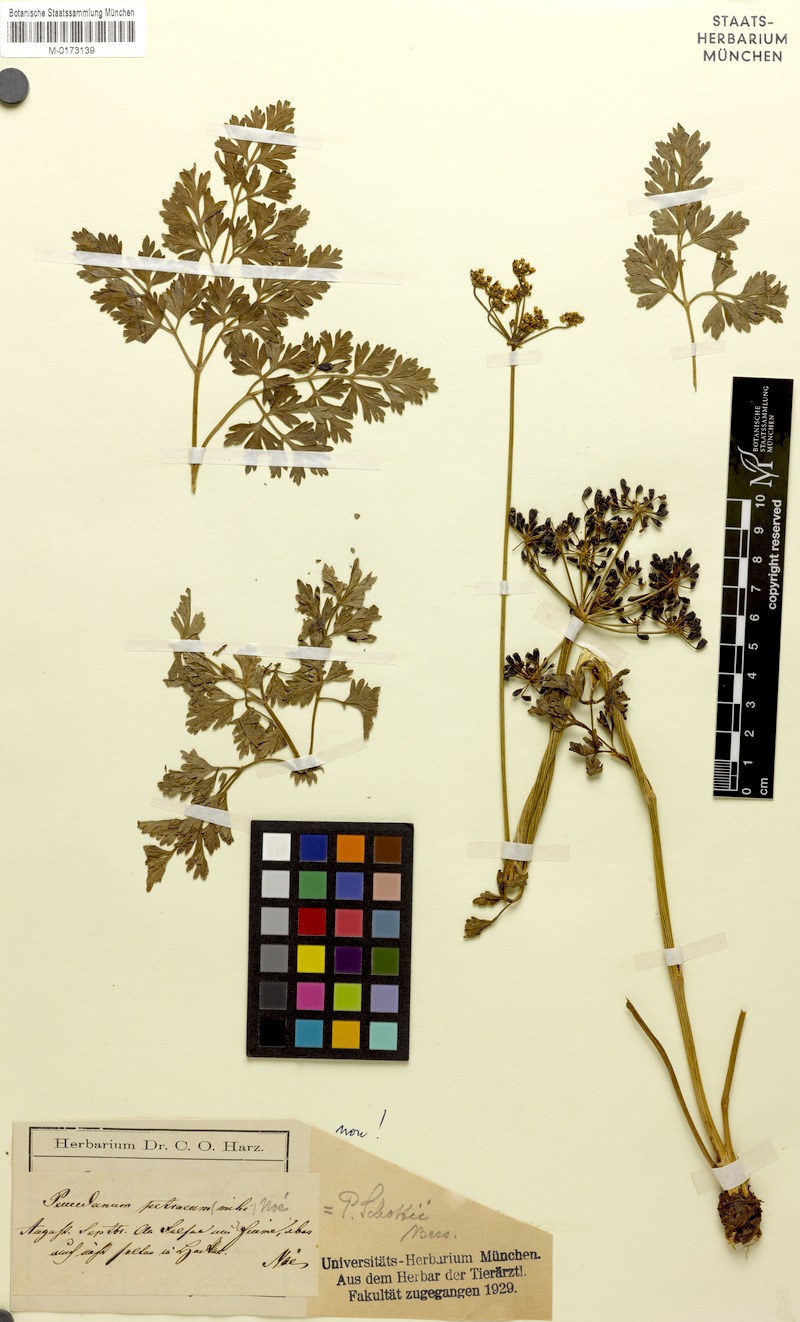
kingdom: Plantae
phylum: Tracheophyta
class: Magnoliopsida
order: Apiales
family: Apiaceae
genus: Peucedanum
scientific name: Peucedanum
